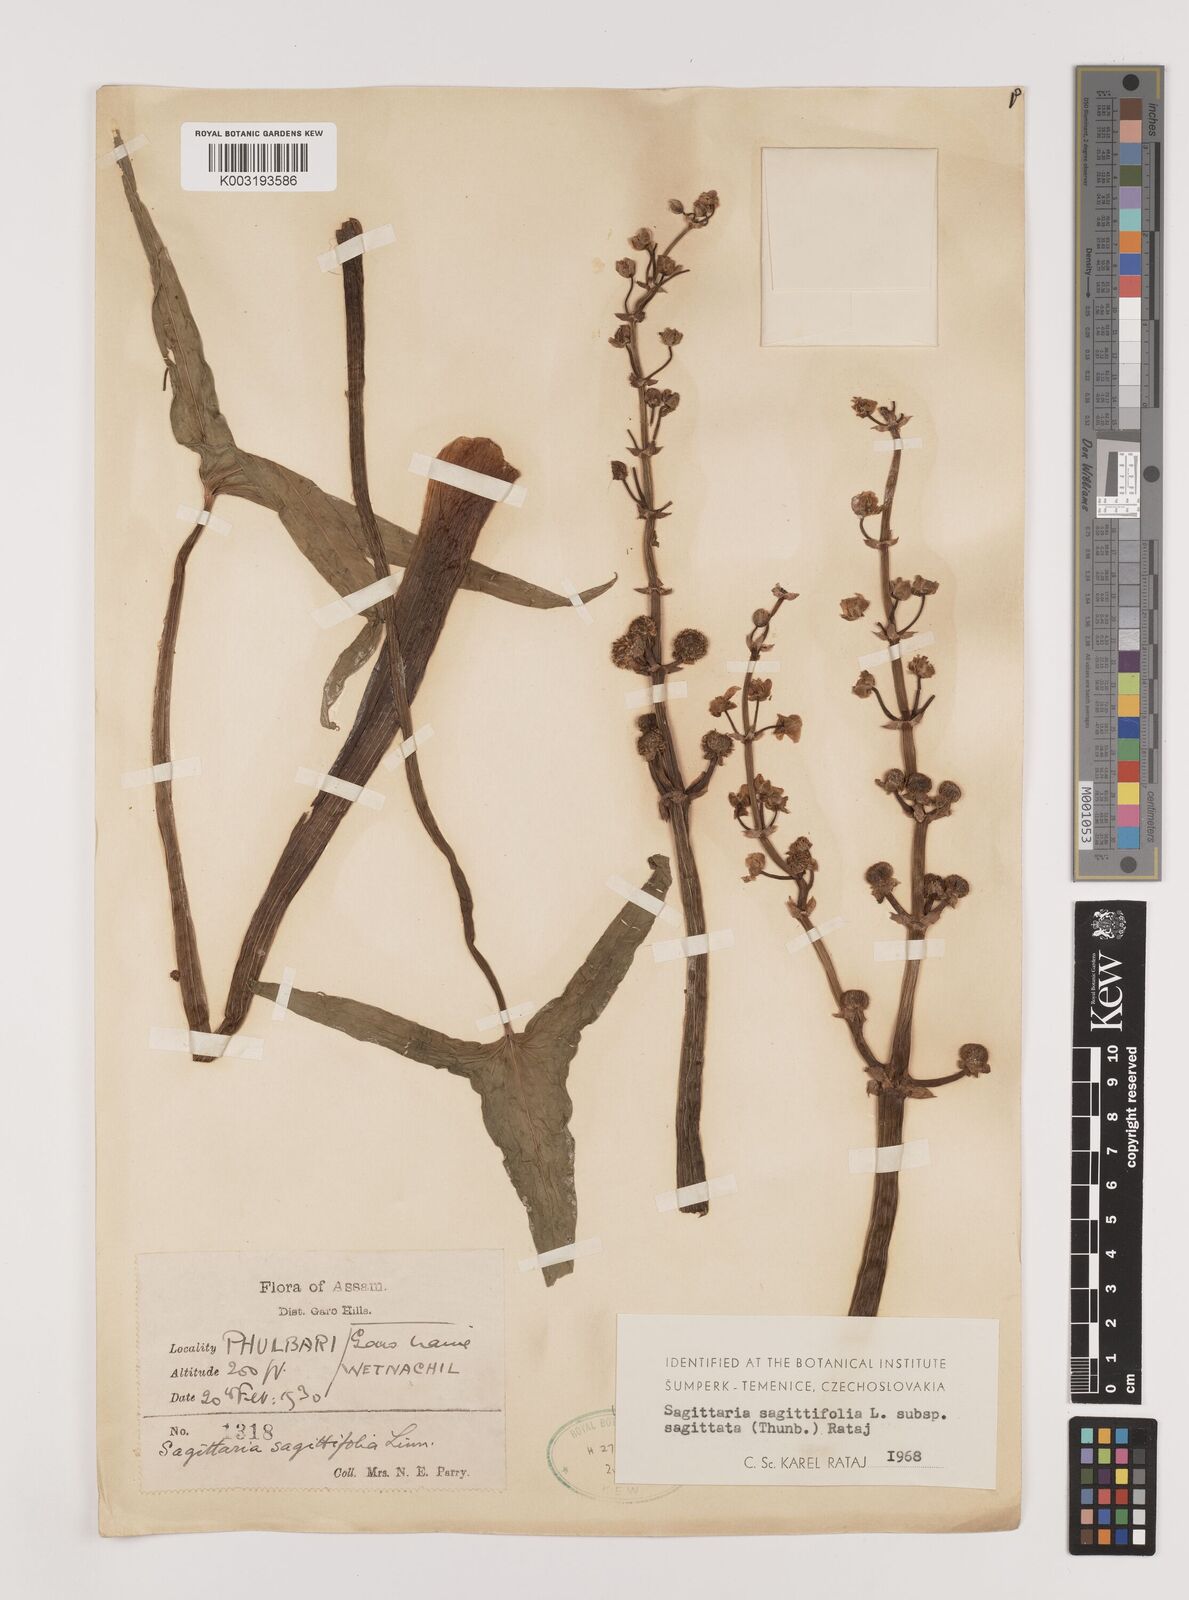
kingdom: Plantae
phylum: Tracheophyta
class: Liliopsida
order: Alismatales
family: Alismataceae
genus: Sagittaria
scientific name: Sagittaria sagittifolia
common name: Arrowhead
